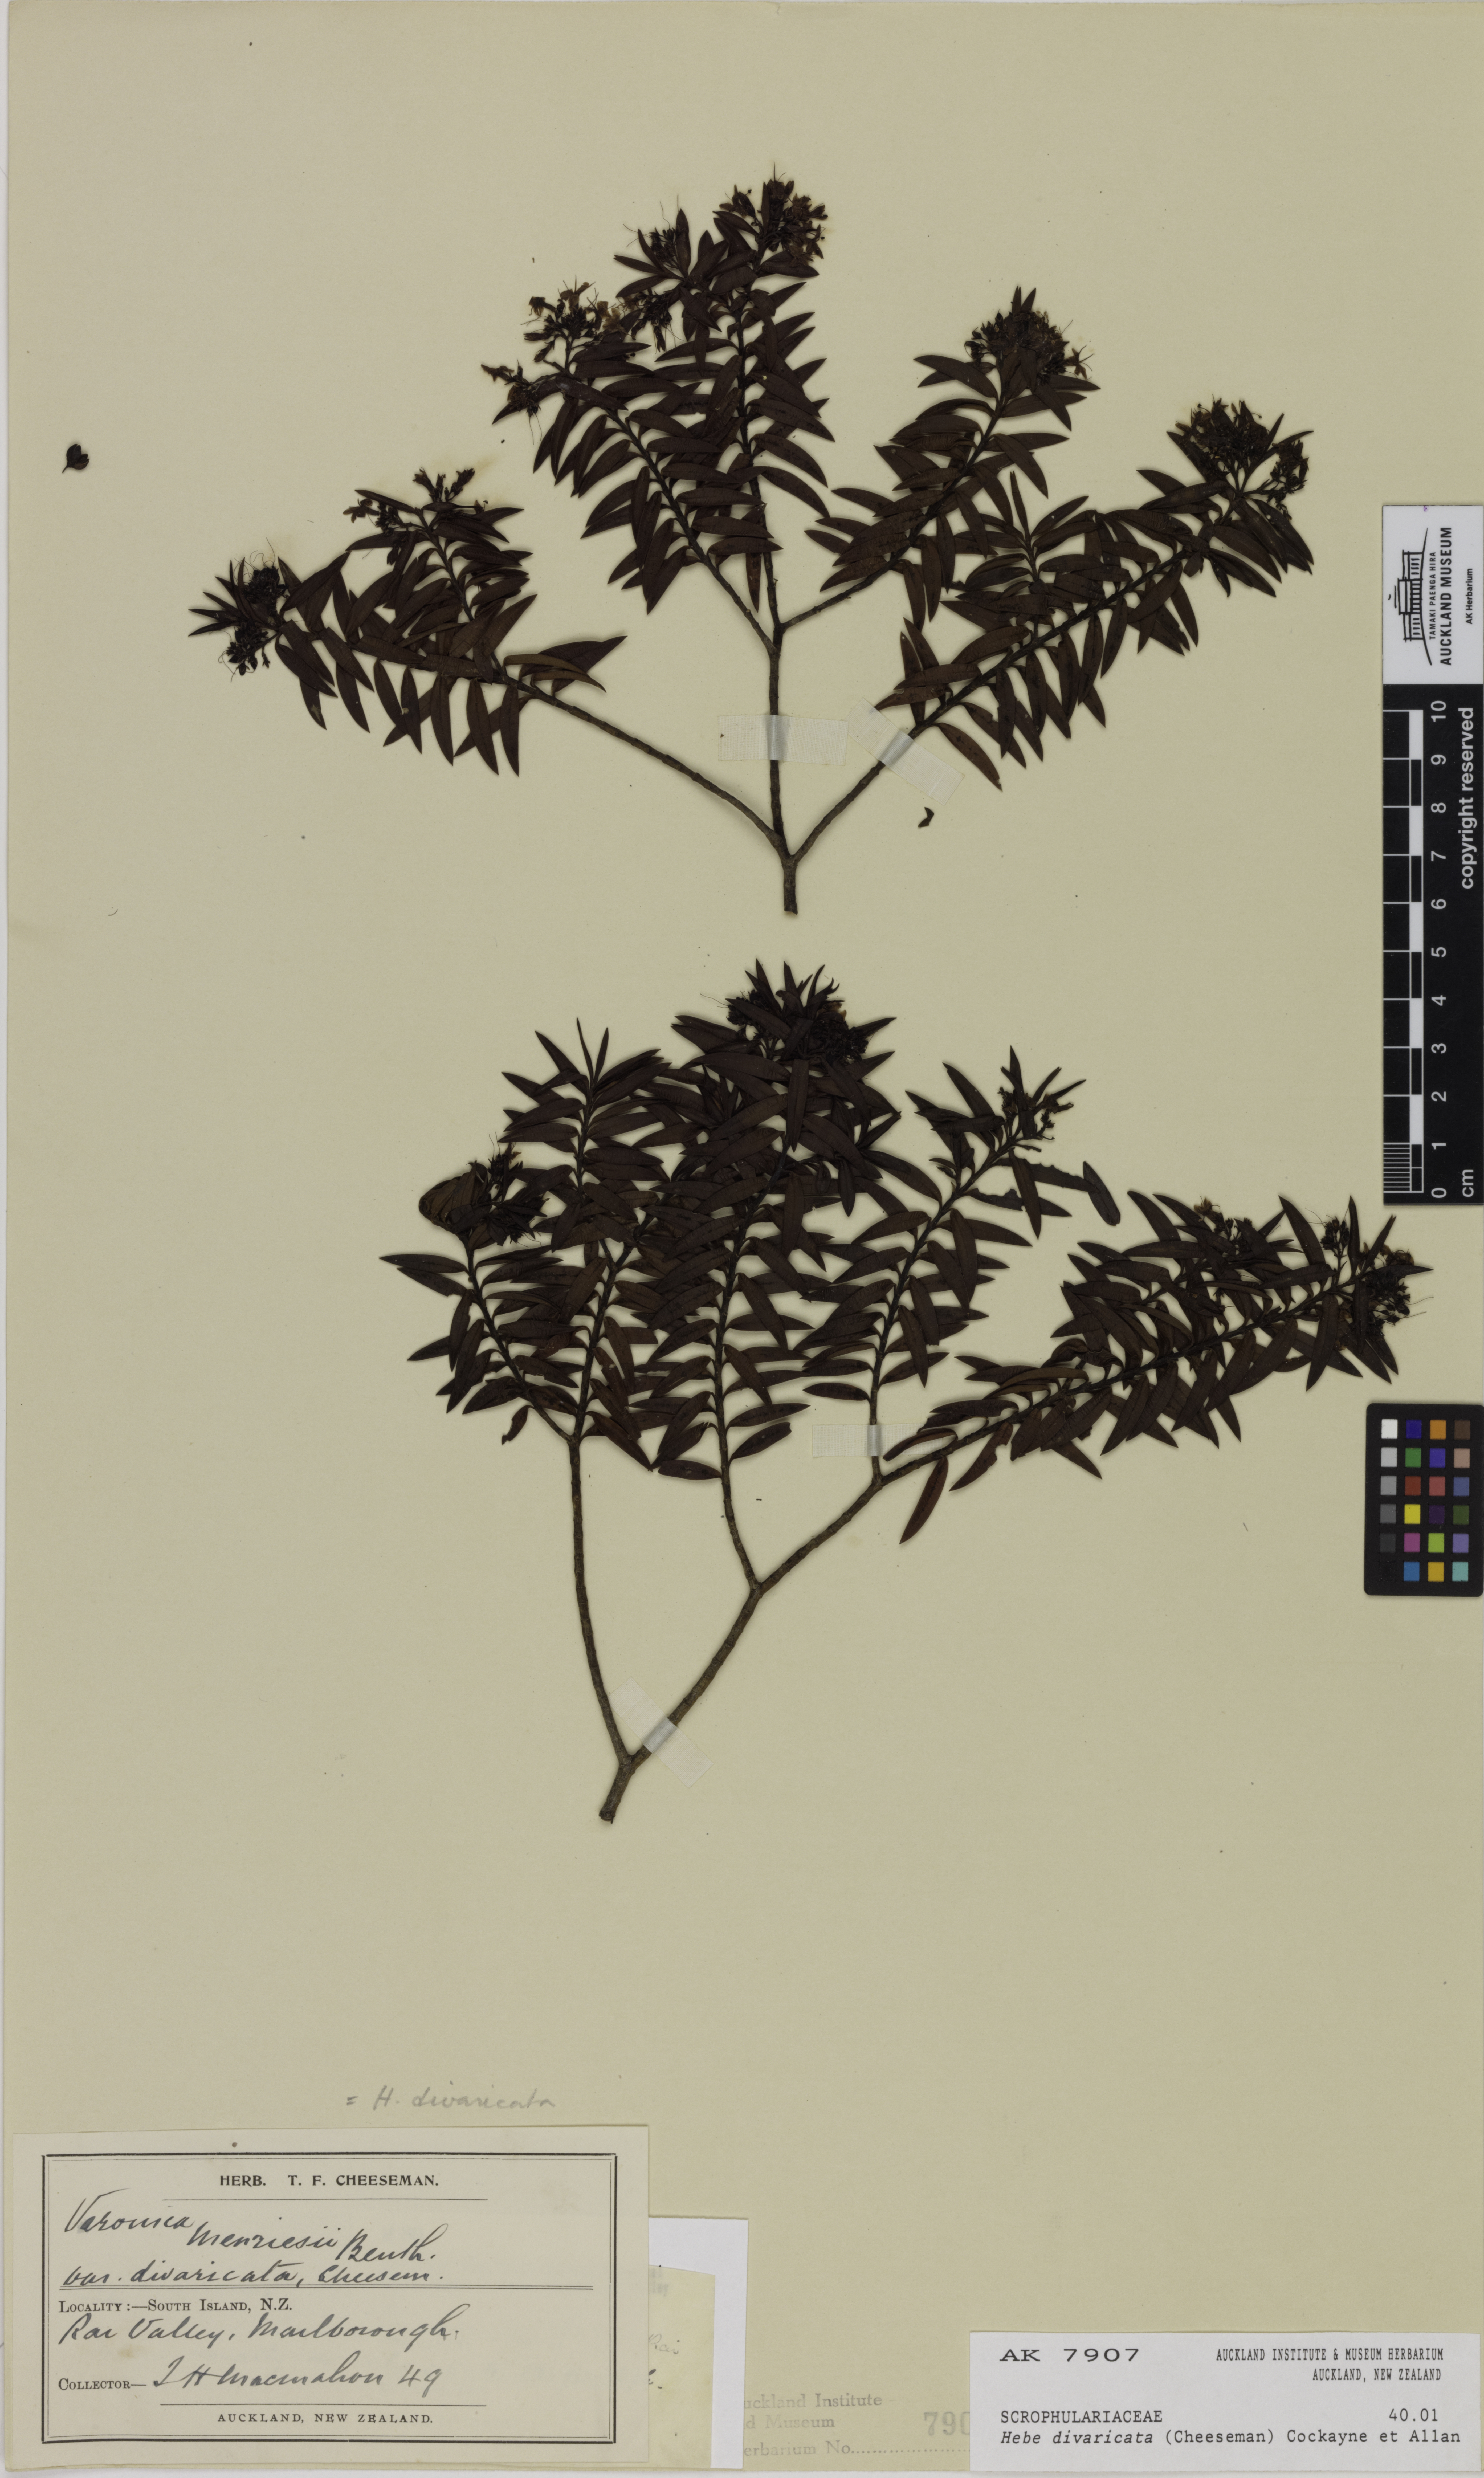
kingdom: Plantae
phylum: Tracheophyta
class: Magnoliopsida
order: Lamiales
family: Plantaginaceae
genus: Veronica
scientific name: Veronica subfulvida
